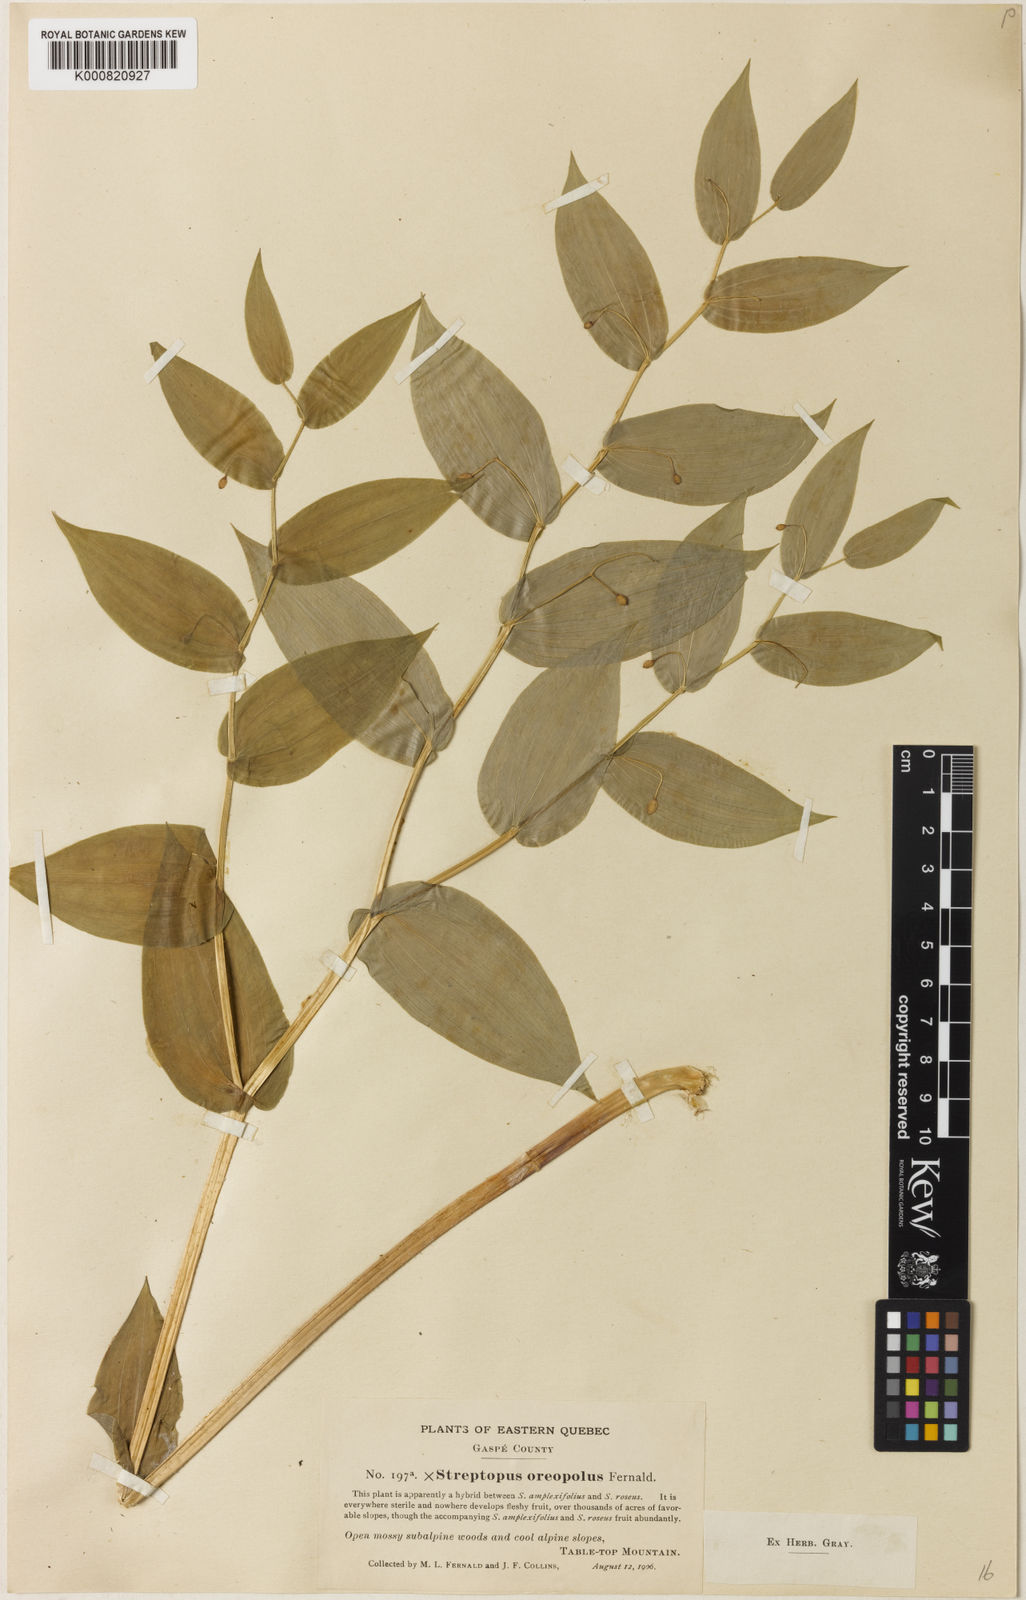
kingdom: Plantae
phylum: Tracheophyta
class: Liliopsida
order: Liliales
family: Liliaceae
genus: Streptopus
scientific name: Streptopus oreopolus
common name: Hybrid twisted-stalk
